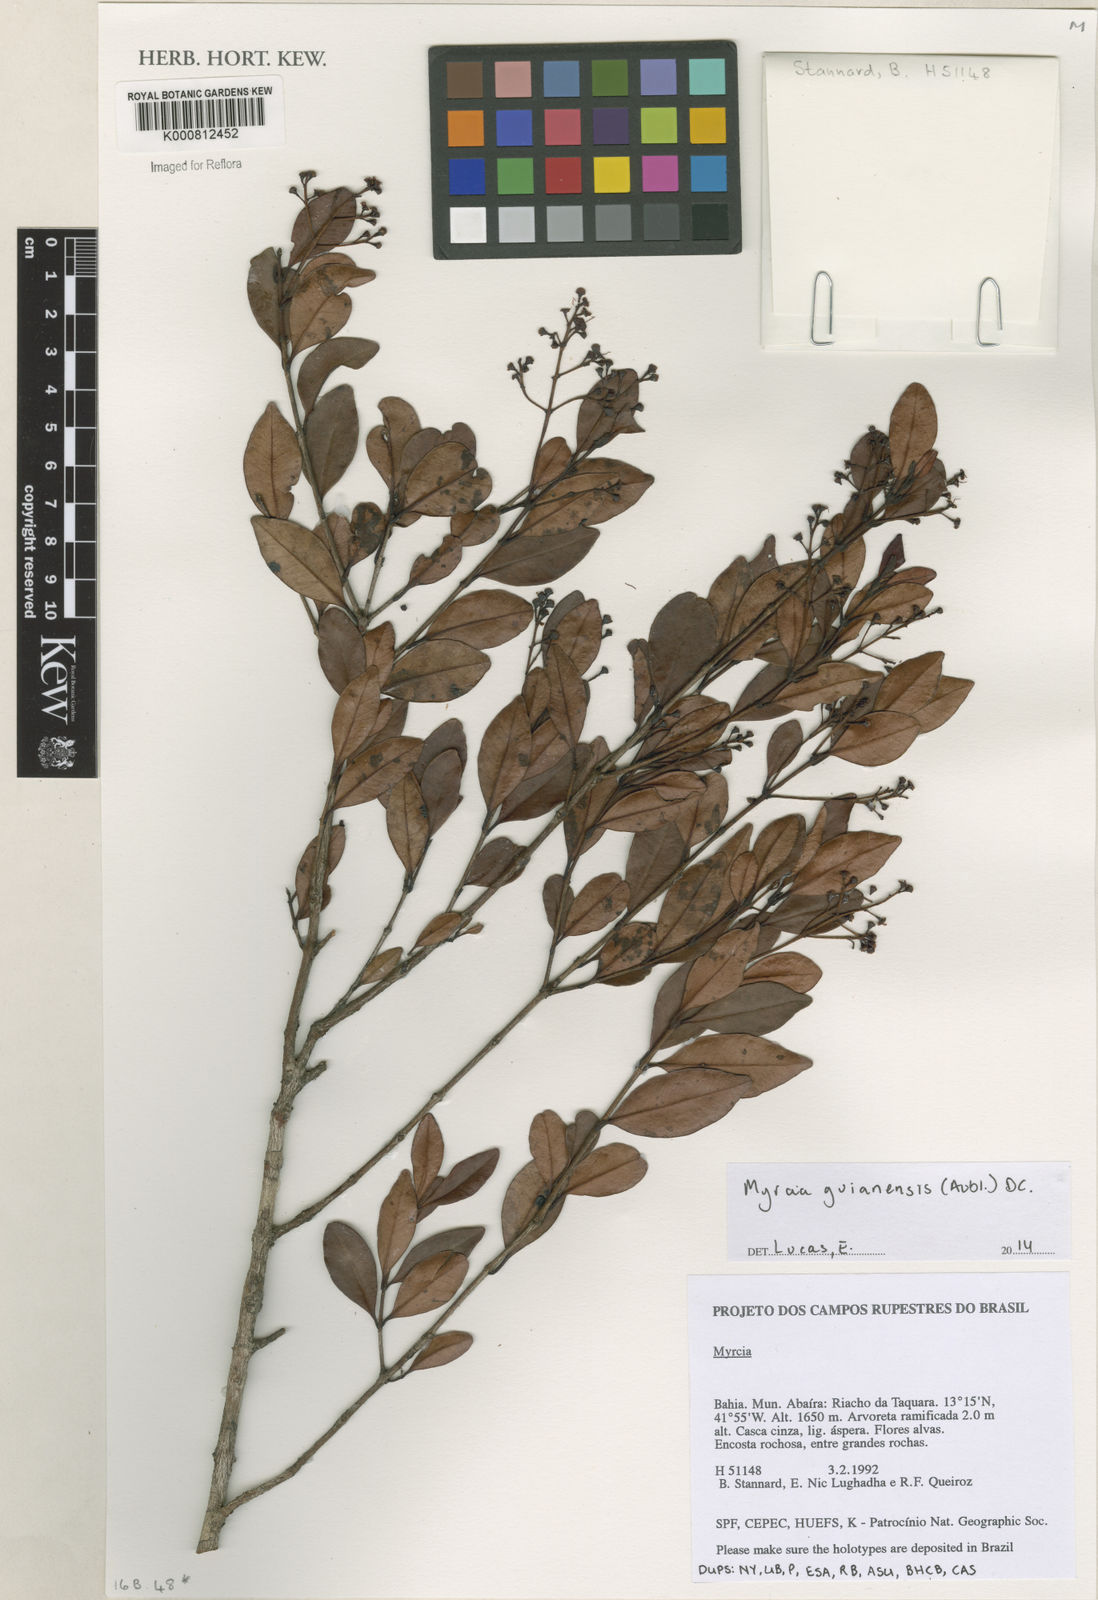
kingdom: Plantae
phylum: Tracheophyta
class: Magnoliopsida
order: Myrtales
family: Myrtaceae
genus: Myrcia
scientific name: Myrcia guianensis
